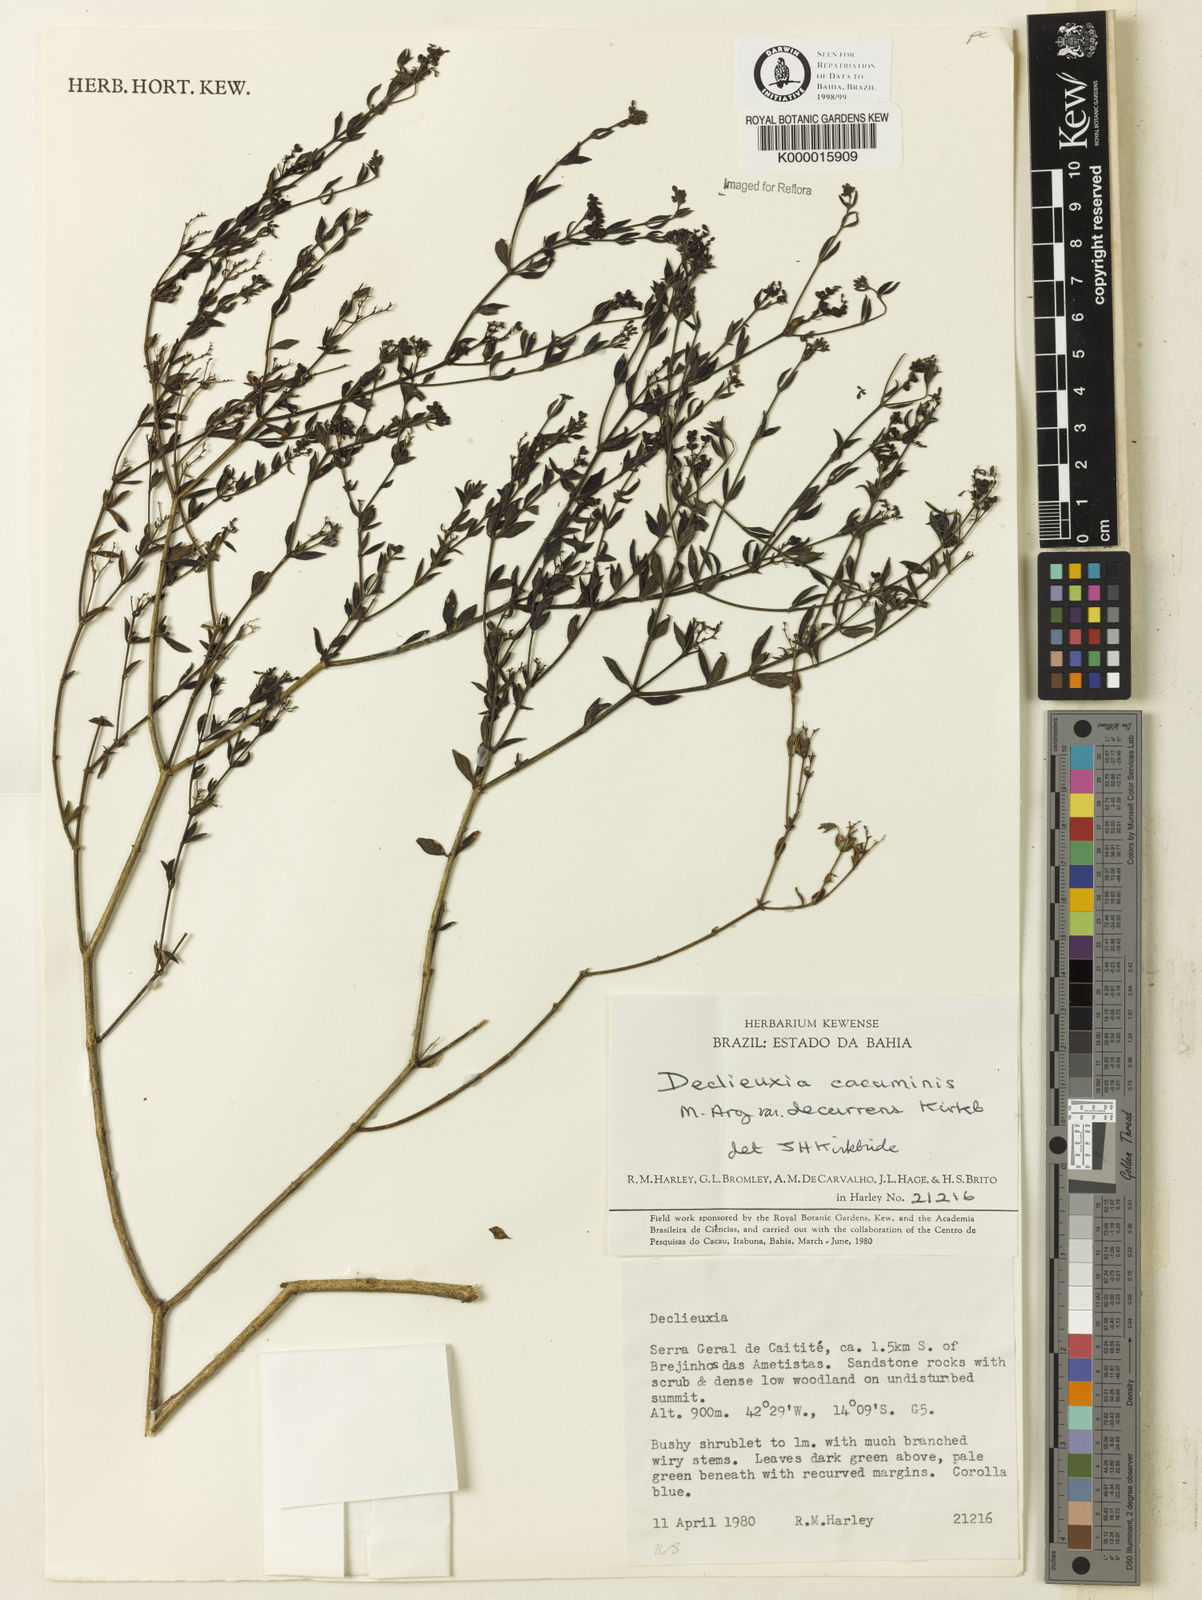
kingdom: Plantae
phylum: Tracheophyta
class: Magnoliopsida
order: Gentianales
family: Rubiaceae
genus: Declieuxia
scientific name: Declieuxia cacuminis
